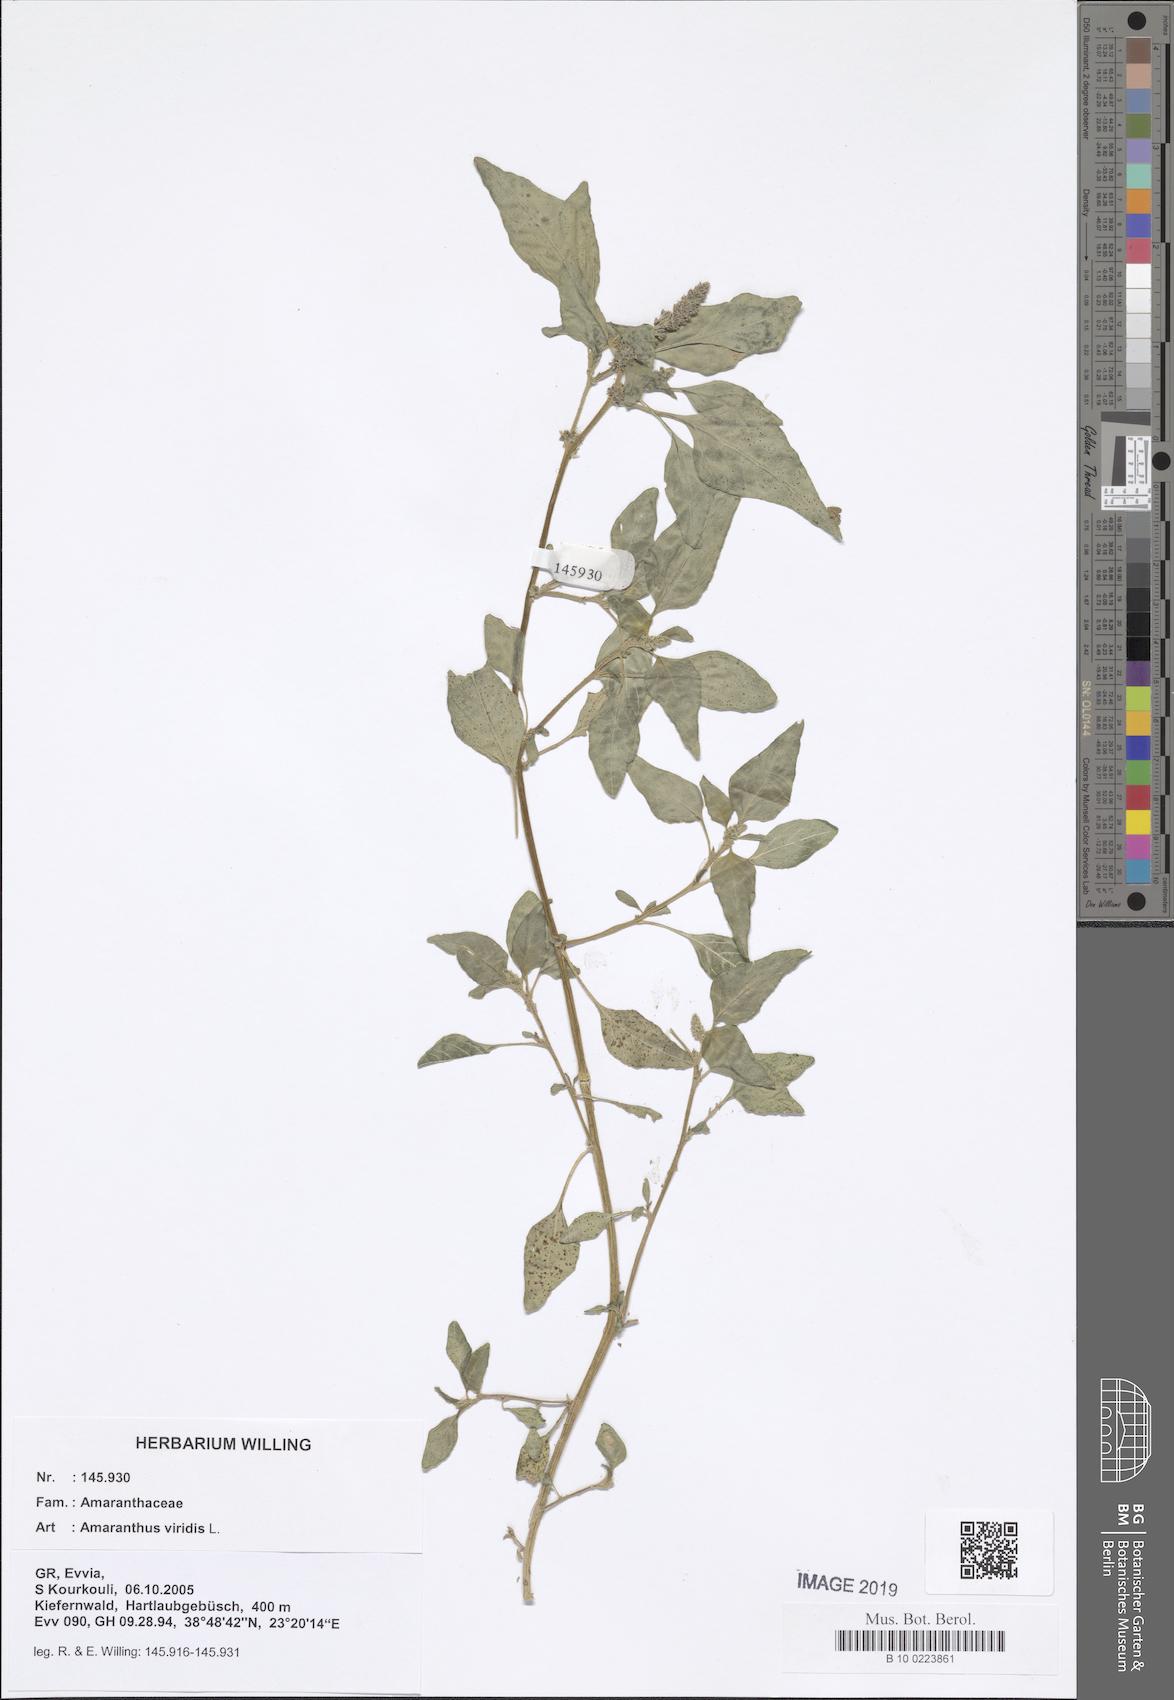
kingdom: Plantae
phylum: Tracheophyta
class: Magnoliopsida
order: Caryophyllales
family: Amaranthaceae
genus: Amaranthus
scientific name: Amaranthus viridis
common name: Slender amaranth
